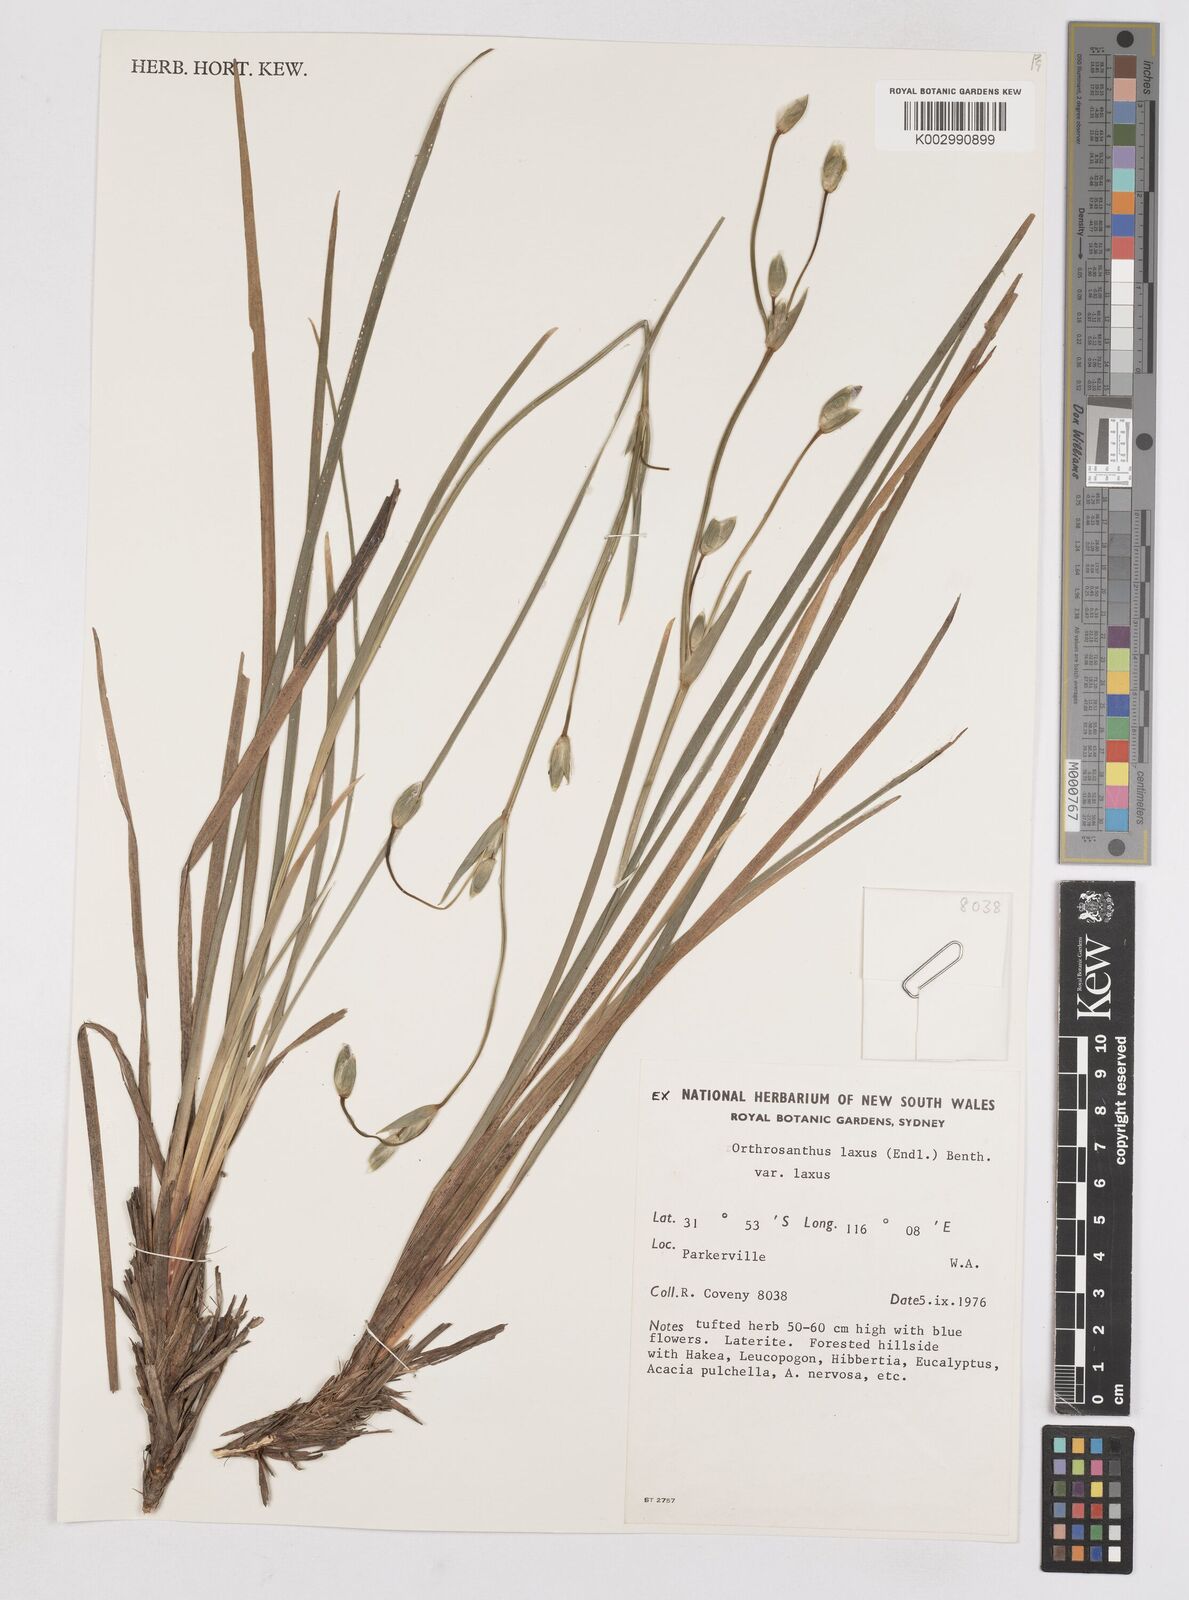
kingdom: Plantae
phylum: Tracheophyta
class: Liliopsida
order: Asparagales
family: Iridaceae
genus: Orthrosanthus
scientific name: Orthrosanthus laxus
